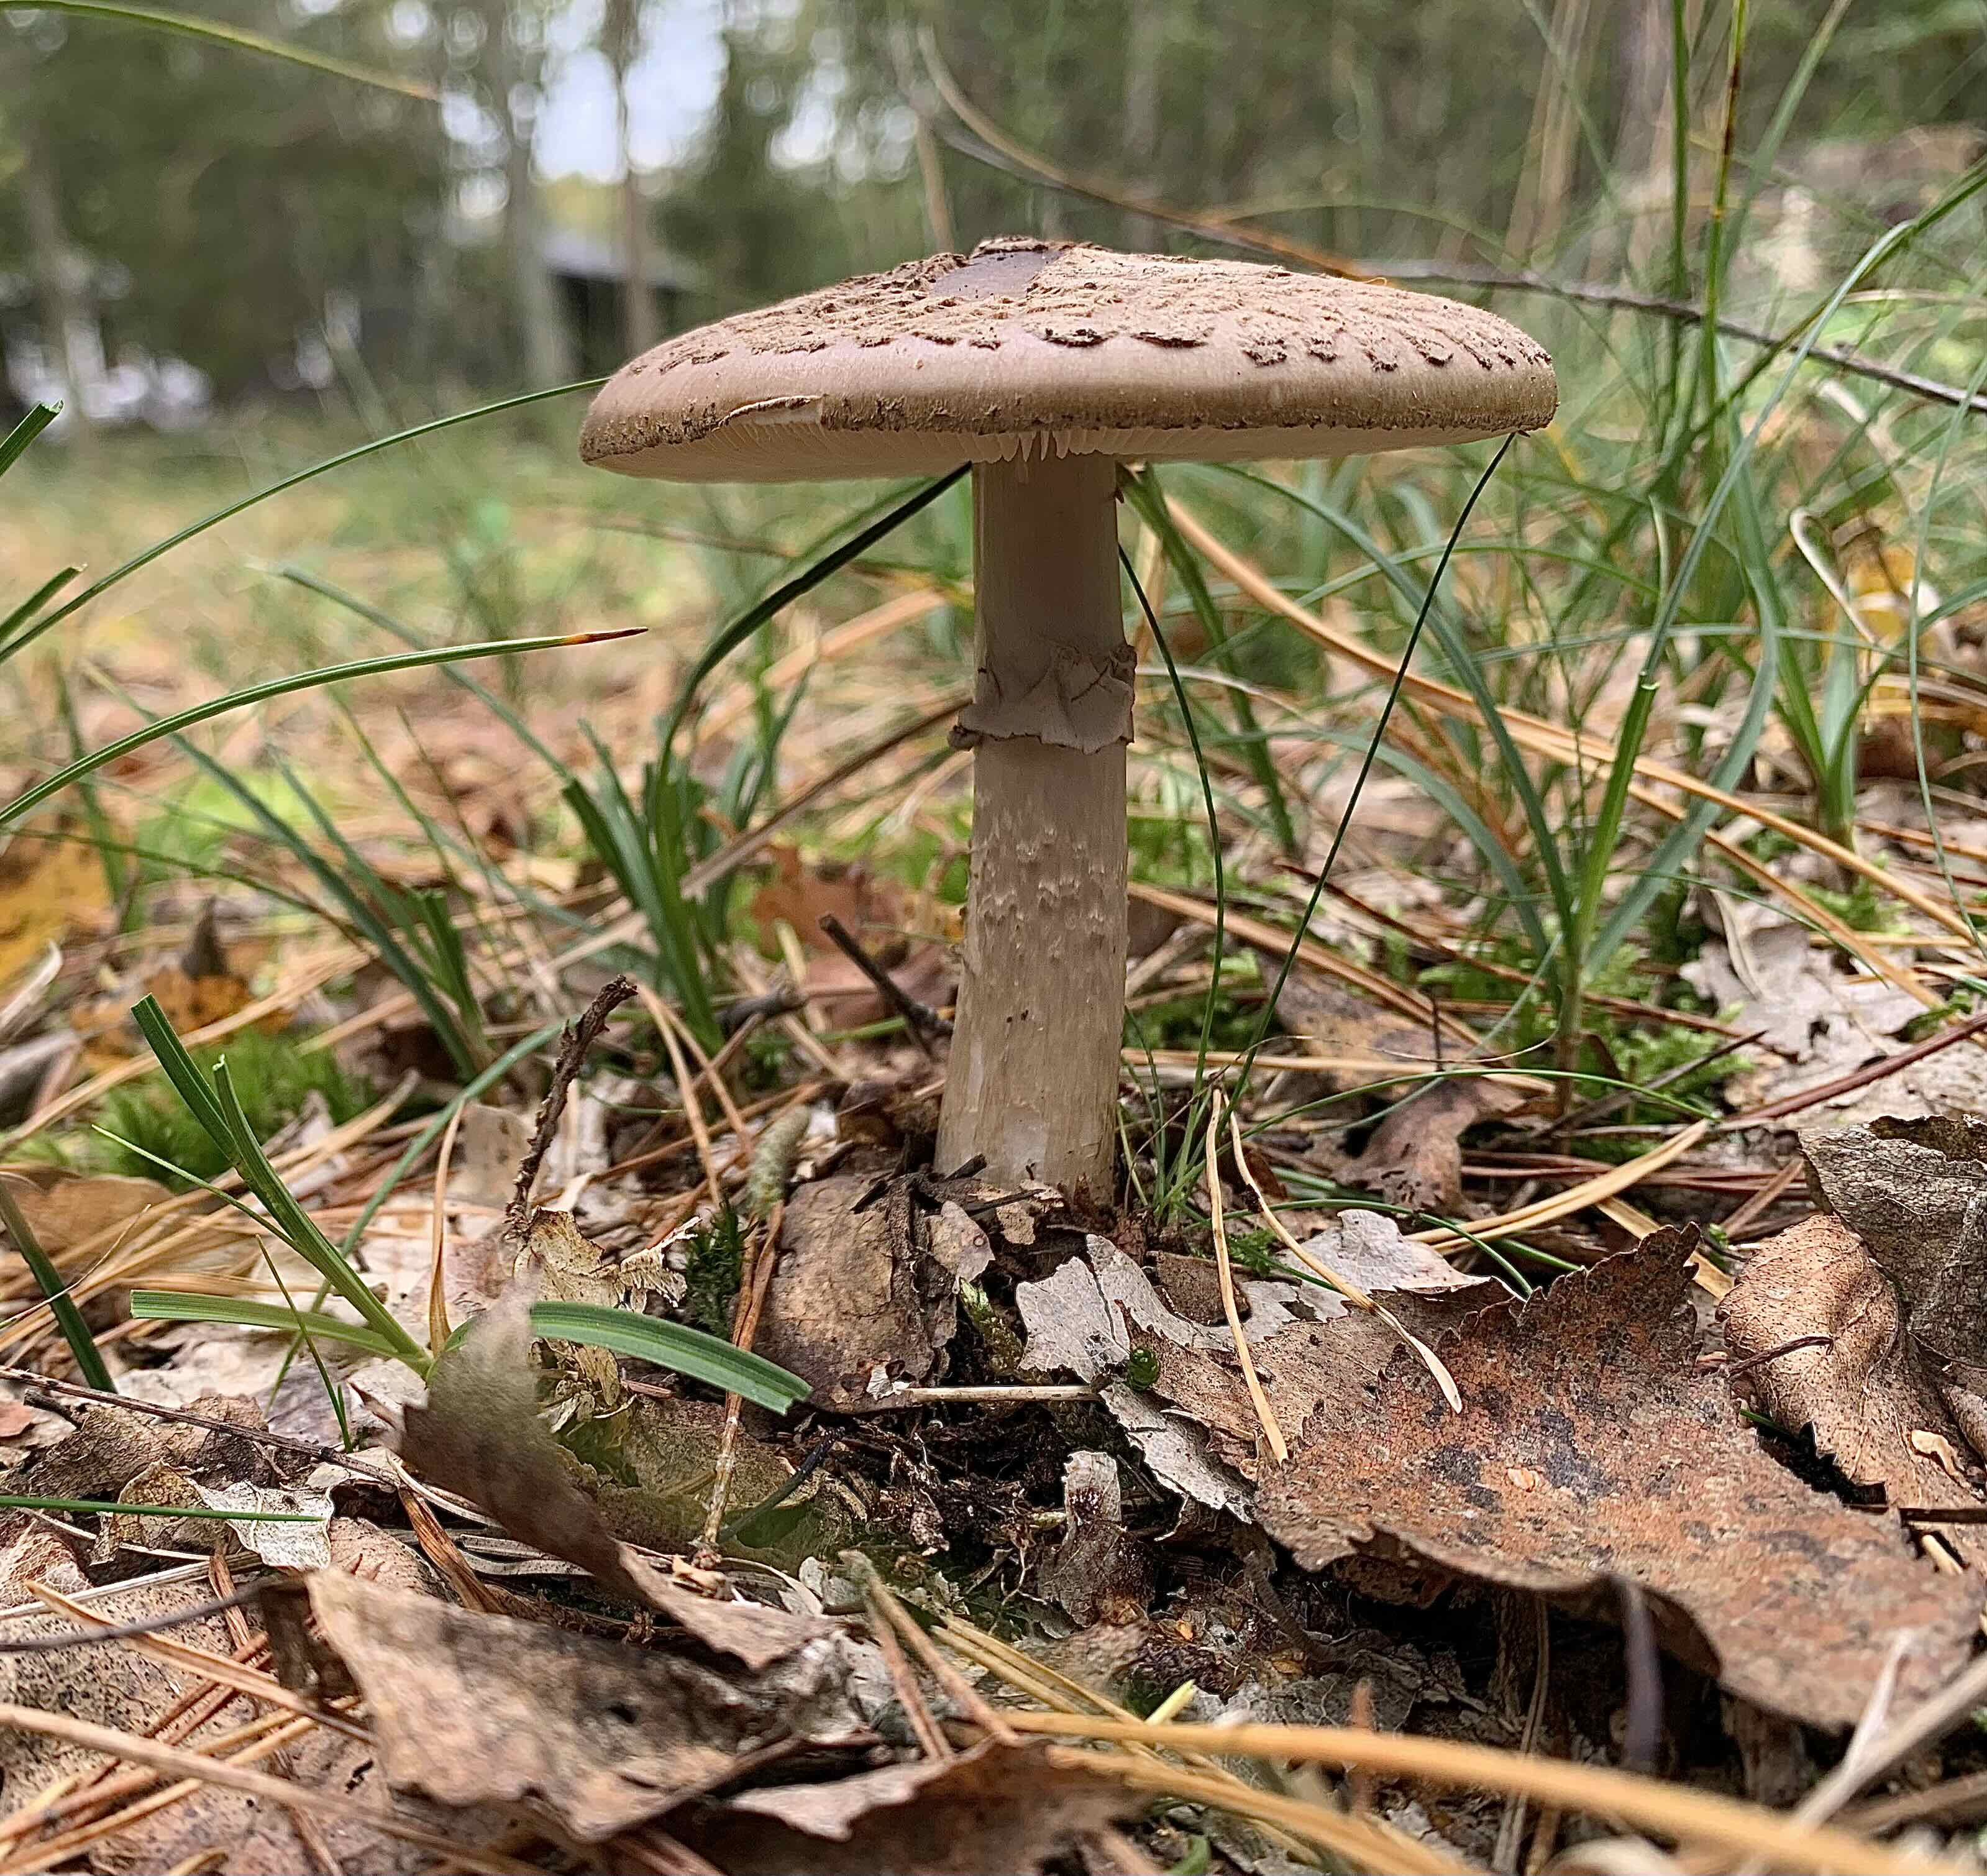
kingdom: Fungi
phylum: Basidiomycota
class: Agaricomycetes
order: Agaricales
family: Amanitaceae
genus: Amanita
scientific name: Amanita porphyria
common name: porfyr-fluesvamp
